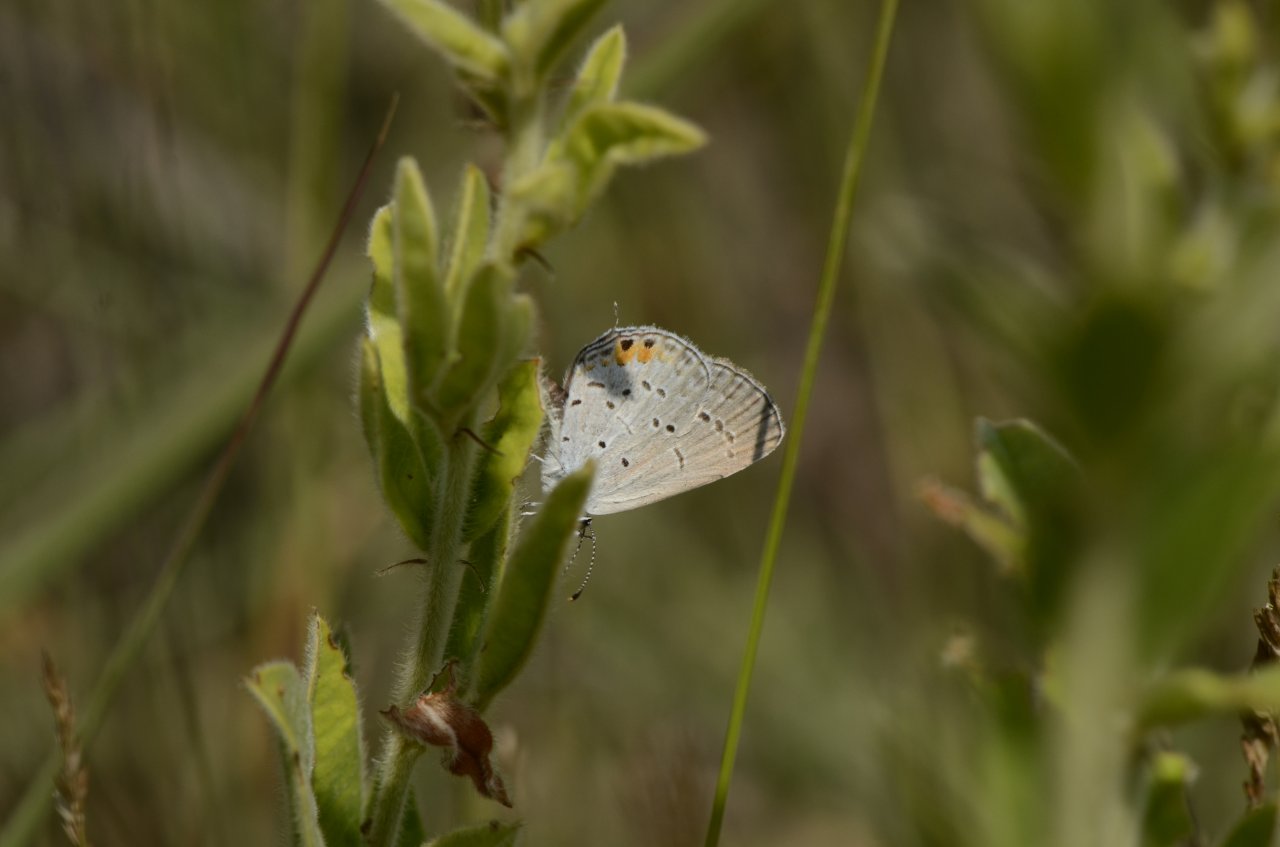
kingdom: Animalia
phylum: Arthropoda
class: Insecta
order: Lepidoptera
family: Lycaenidae
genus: Elkalyce
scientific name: Elkalyce comyntas
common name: Eastern Tailed-Blue
